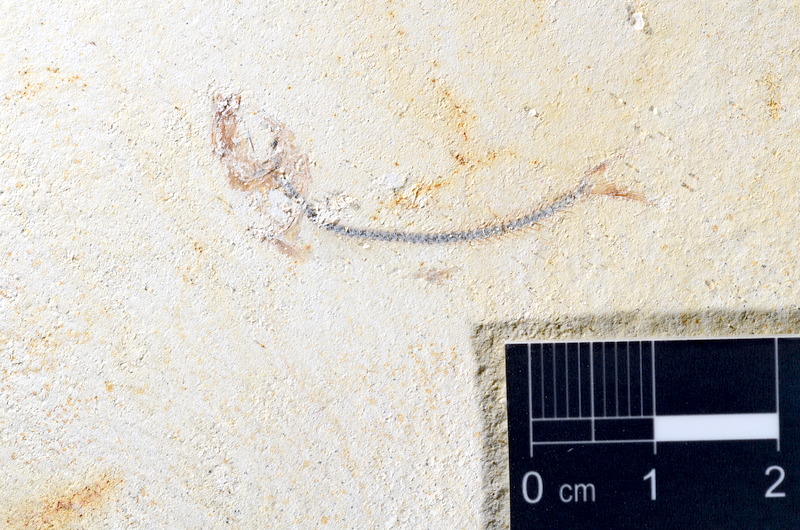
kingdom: Animalia
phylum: Chordata
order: Salmoniformes
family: Orthogonikleithridae
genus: Orthogonikleithrus
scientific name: Orthogonikleithrus hoelli
